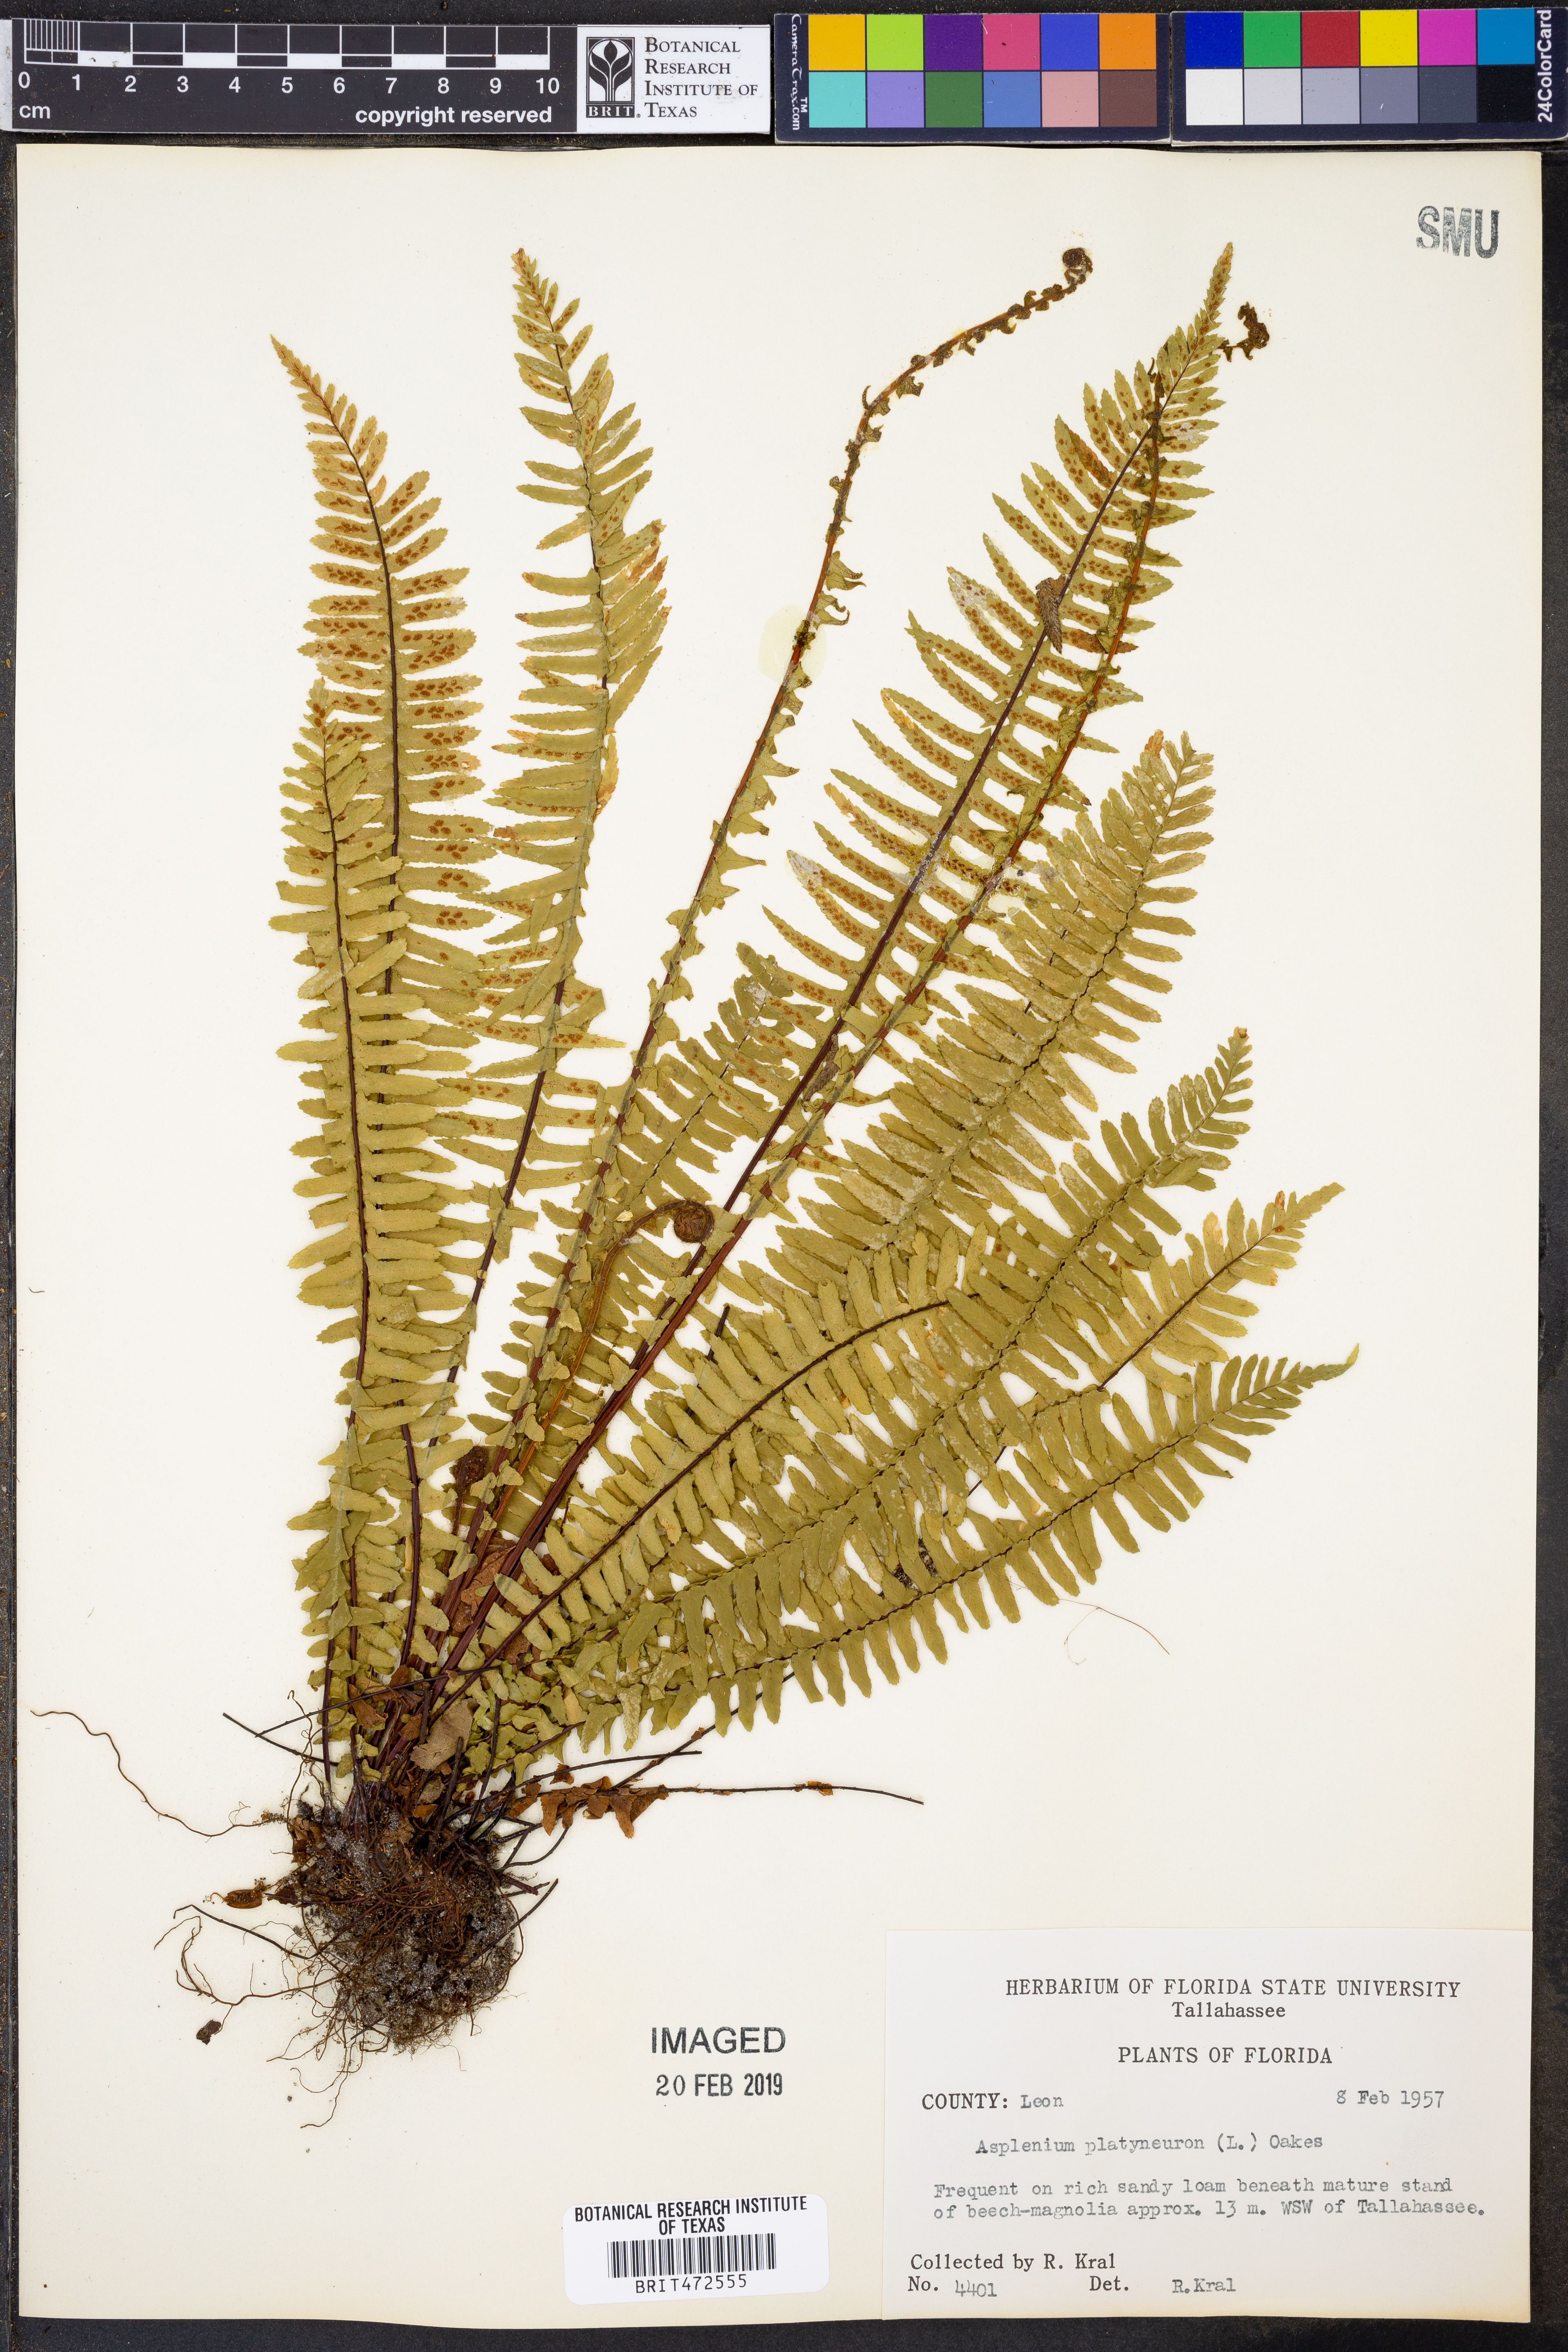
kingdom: Plantae
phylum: Tracheophyta
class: Polypodiopsida
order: Polypodiales
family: Aspleniaceae
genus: Asplenium
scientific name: Asplenium platyneuron
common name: Ebony spleenwort
